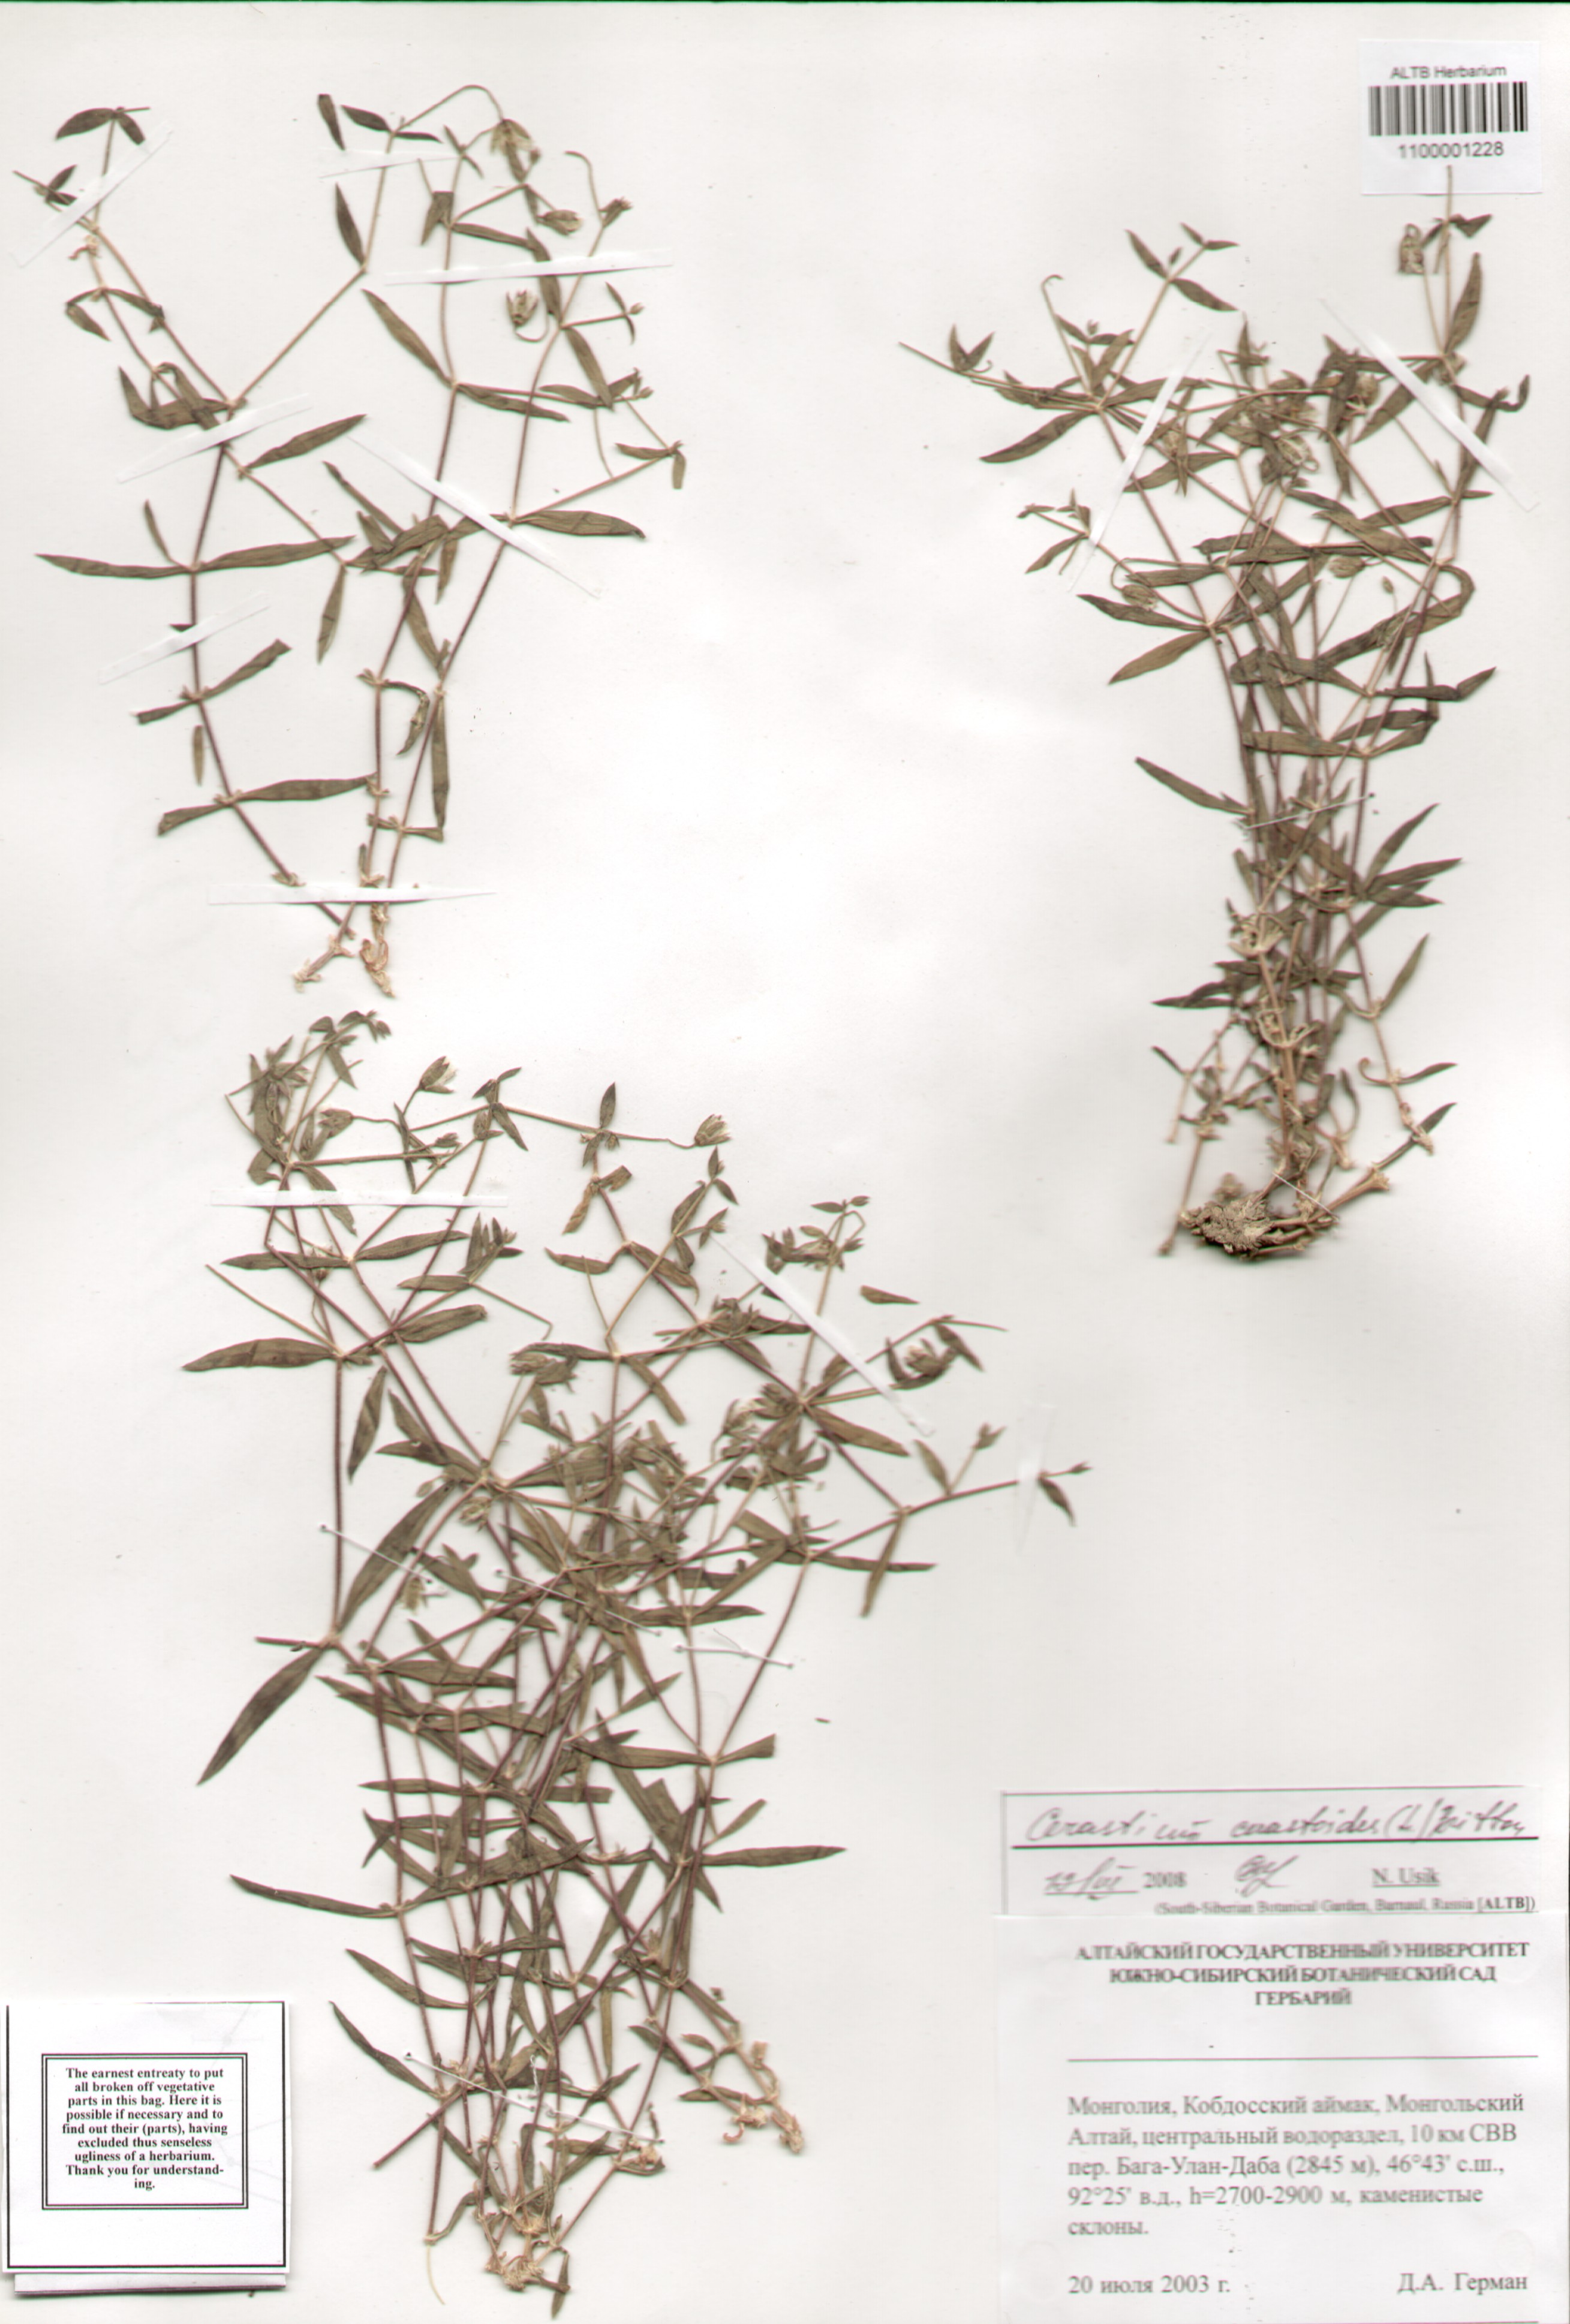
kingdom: Plantae
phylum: Tracheophyta
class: Magnoliopsida
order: Caryophyllales
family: Caryophyllaceae
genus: Dichodon
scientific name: Dichodon cerastoides
